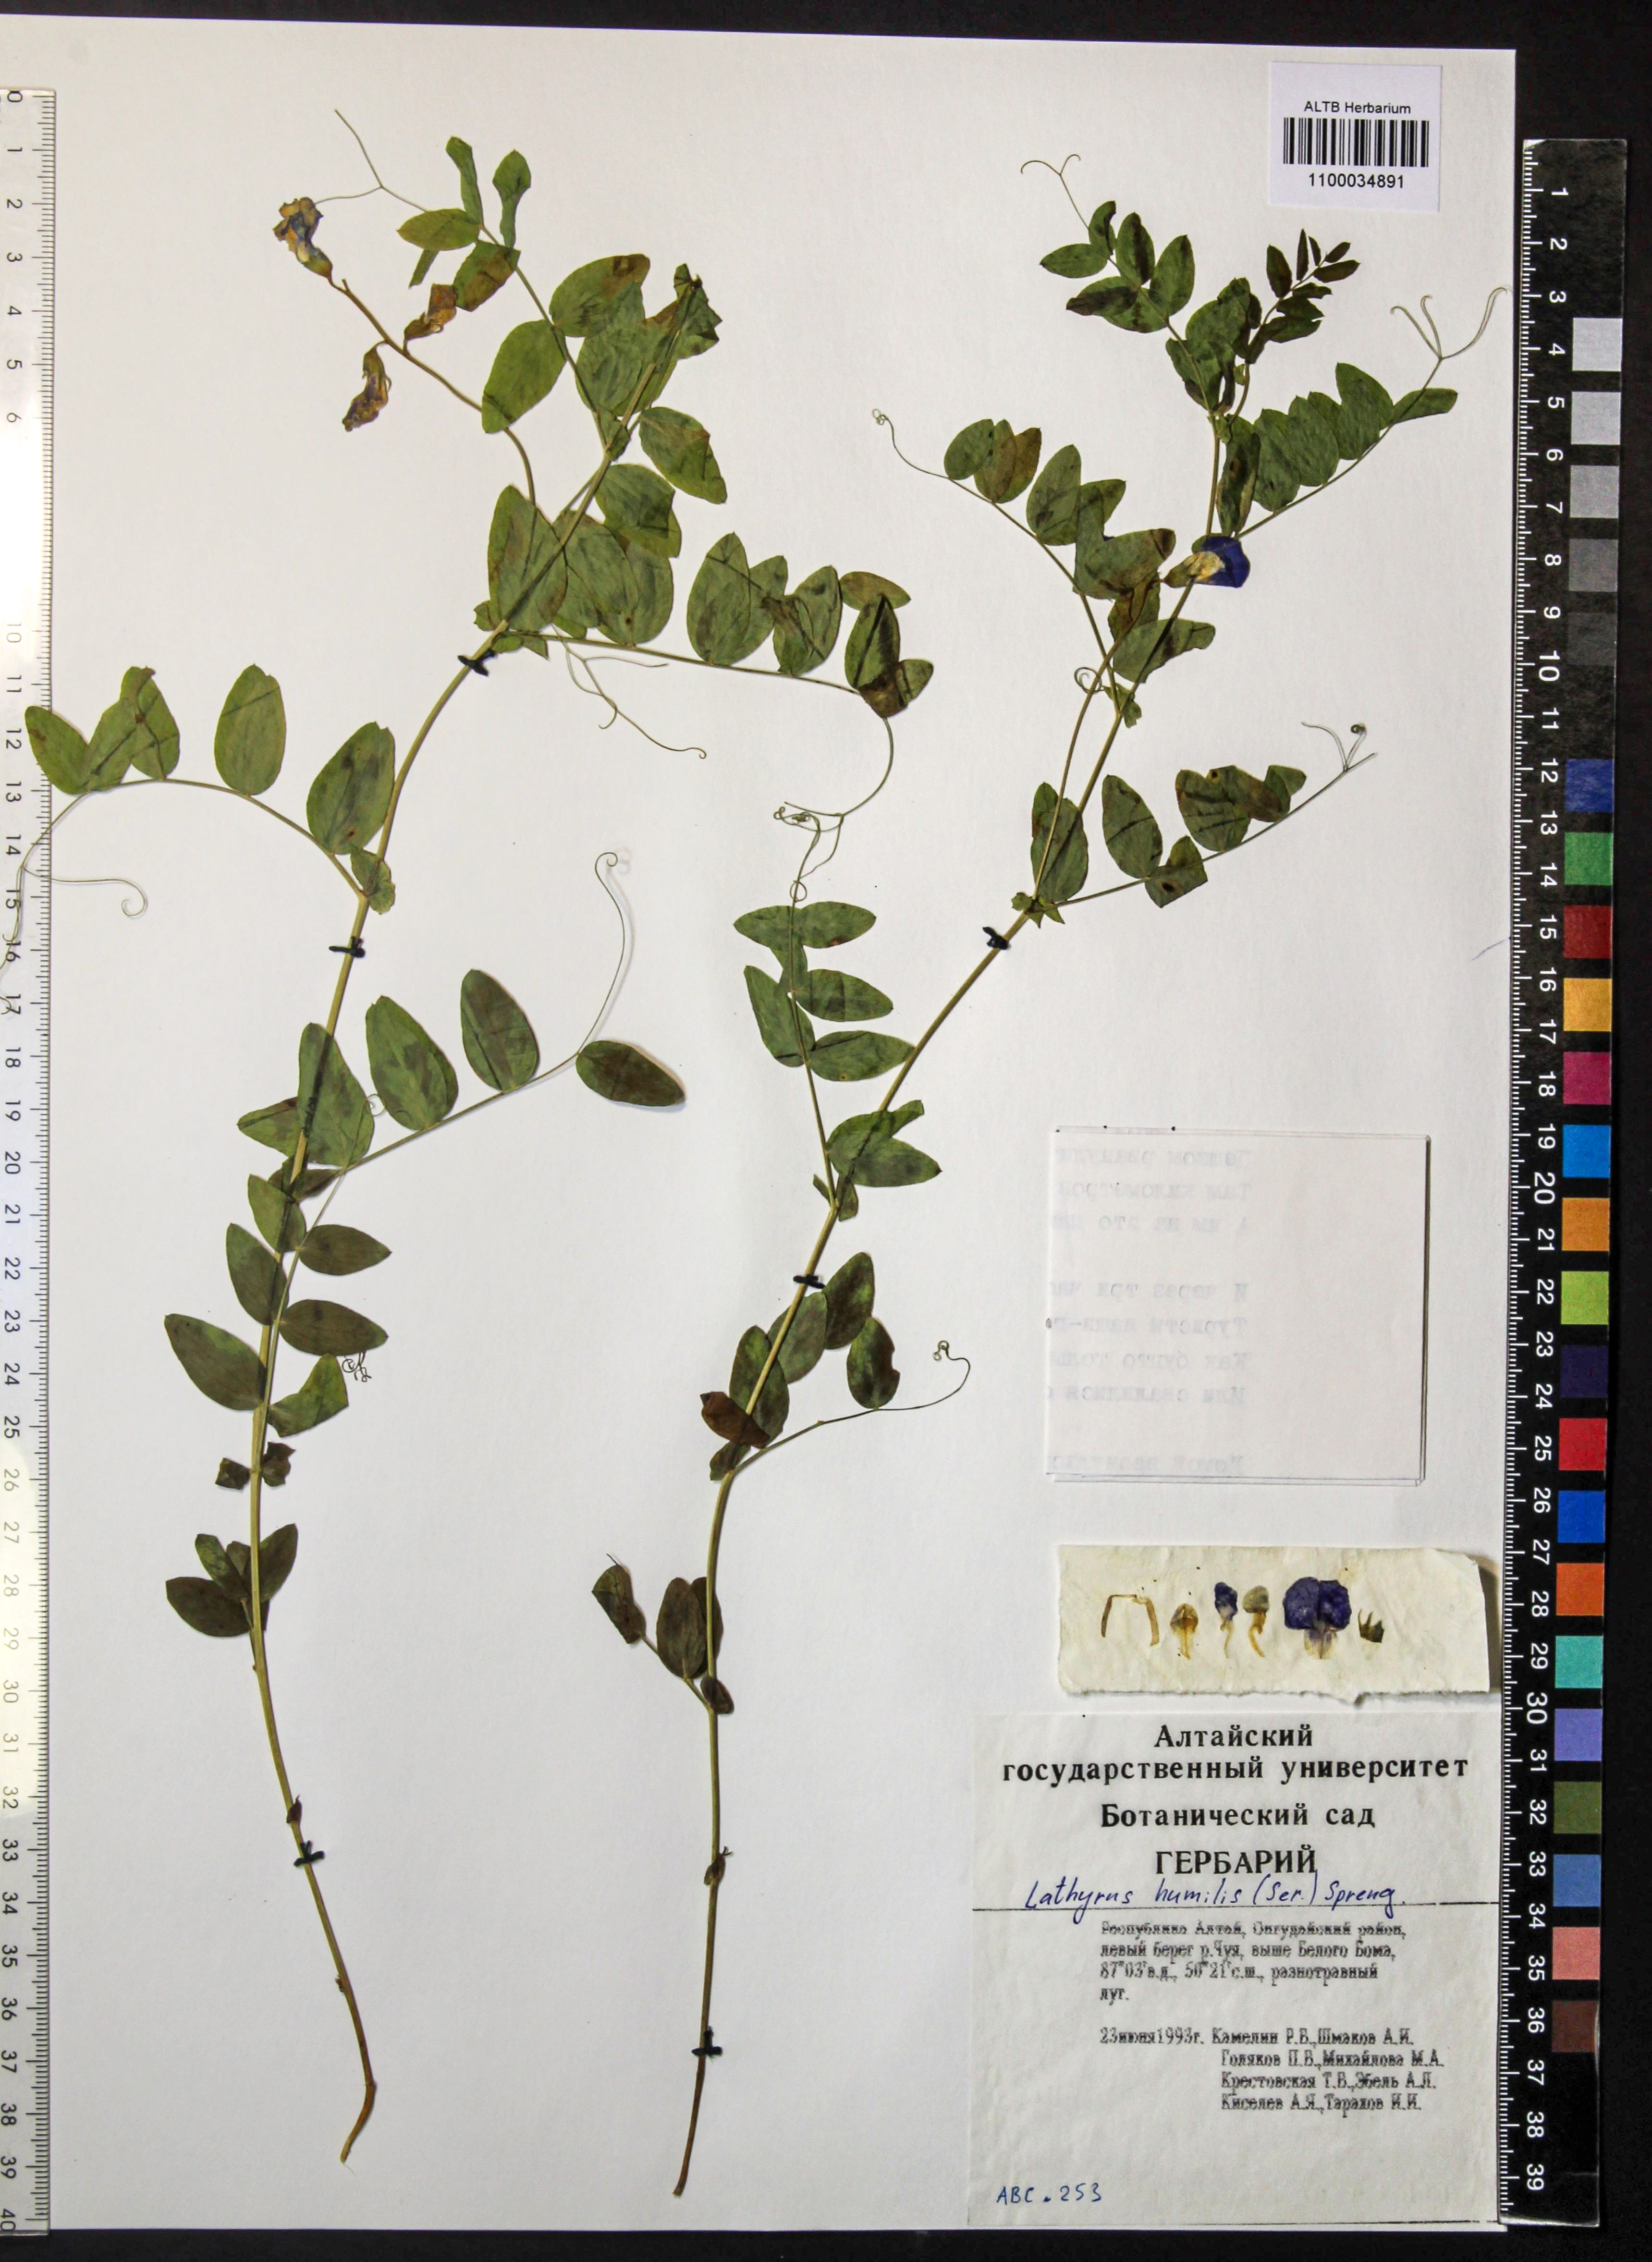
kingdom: Plantae
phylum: Tracheophyta
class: Magnoliopsida
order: Fabales
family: Fabaceae
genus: Lathyrus
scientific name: Lathyrus humilis
